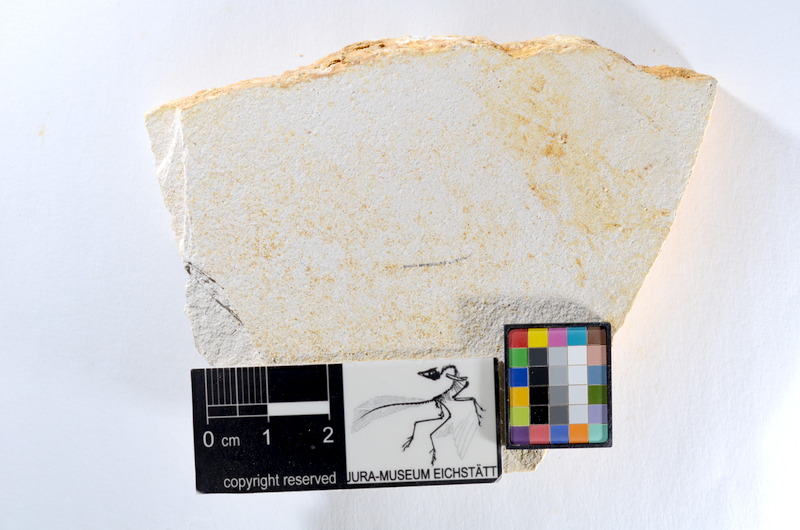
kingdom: Animalia
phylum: Chordata
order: Salmoniformes
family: Orthogonikleithridae
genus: Orthogonikleithrus
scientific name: Orthogonikleithrus hoelli
